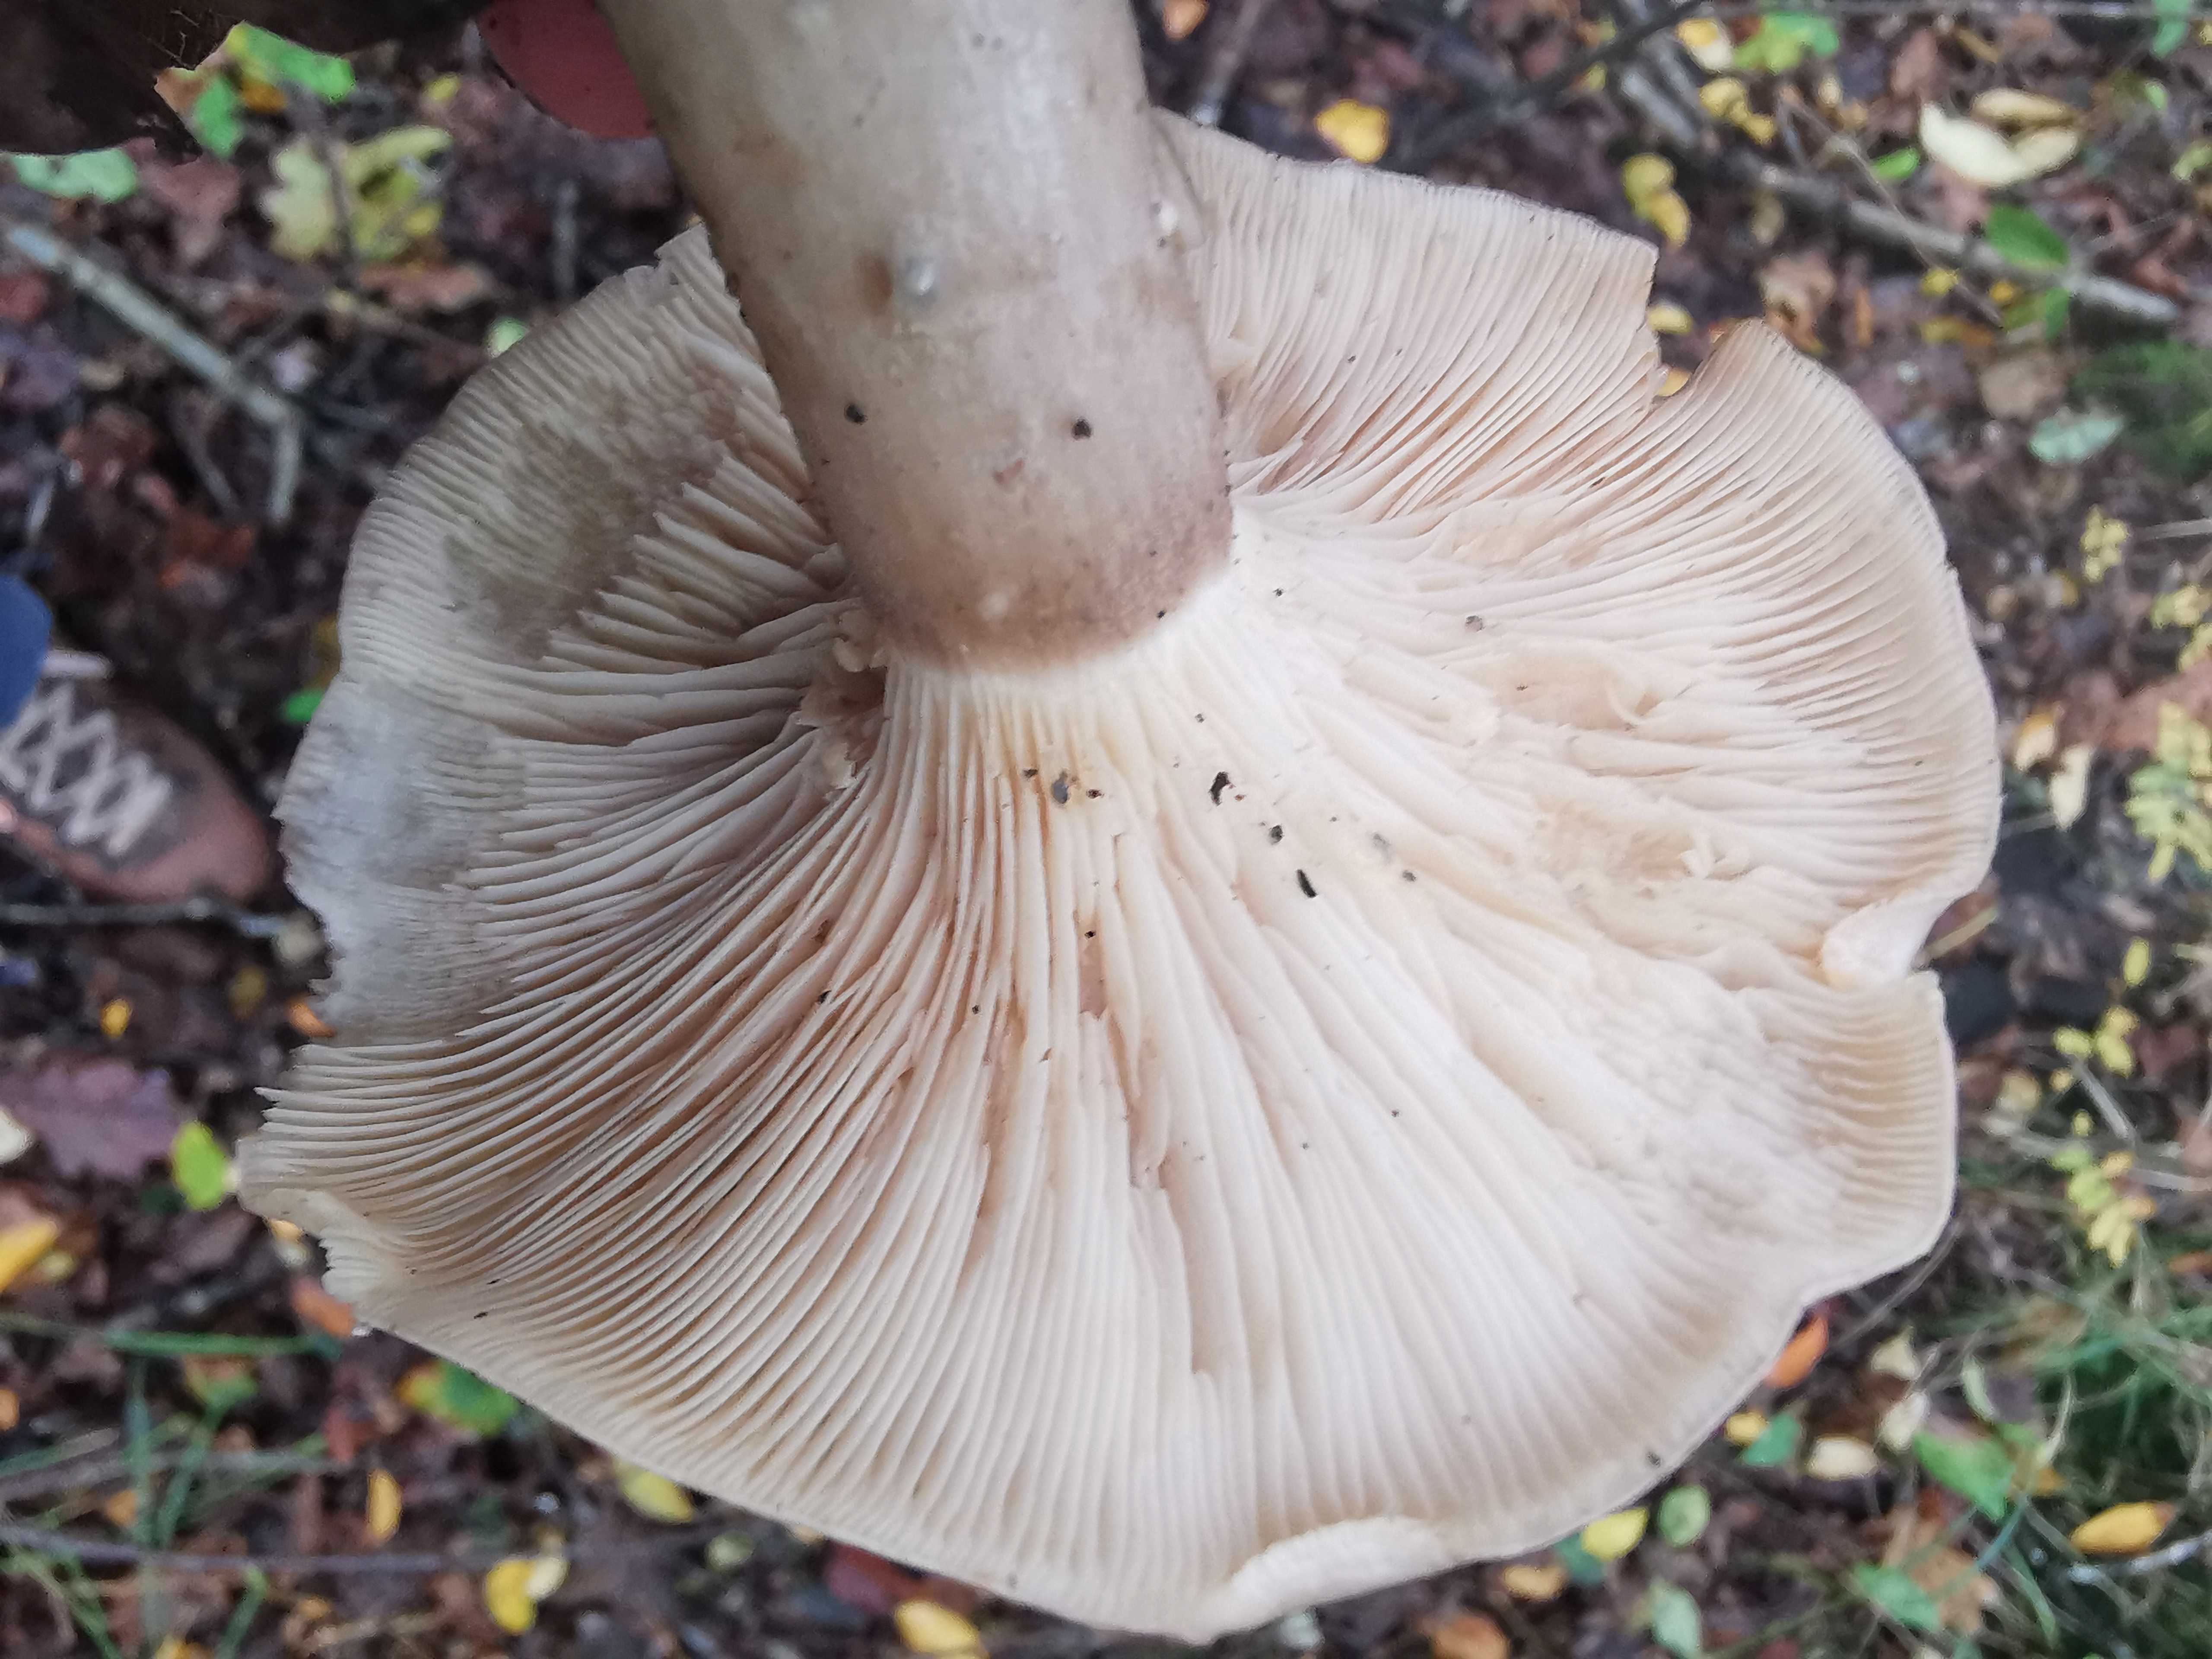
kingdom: Fungi
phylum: Basidiomycota
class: Agaricomycetes
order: Agaricales
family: Tricholomataceae
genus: Clitocybe
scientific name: Clitocybe nebularis
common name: tåge-tragthat
